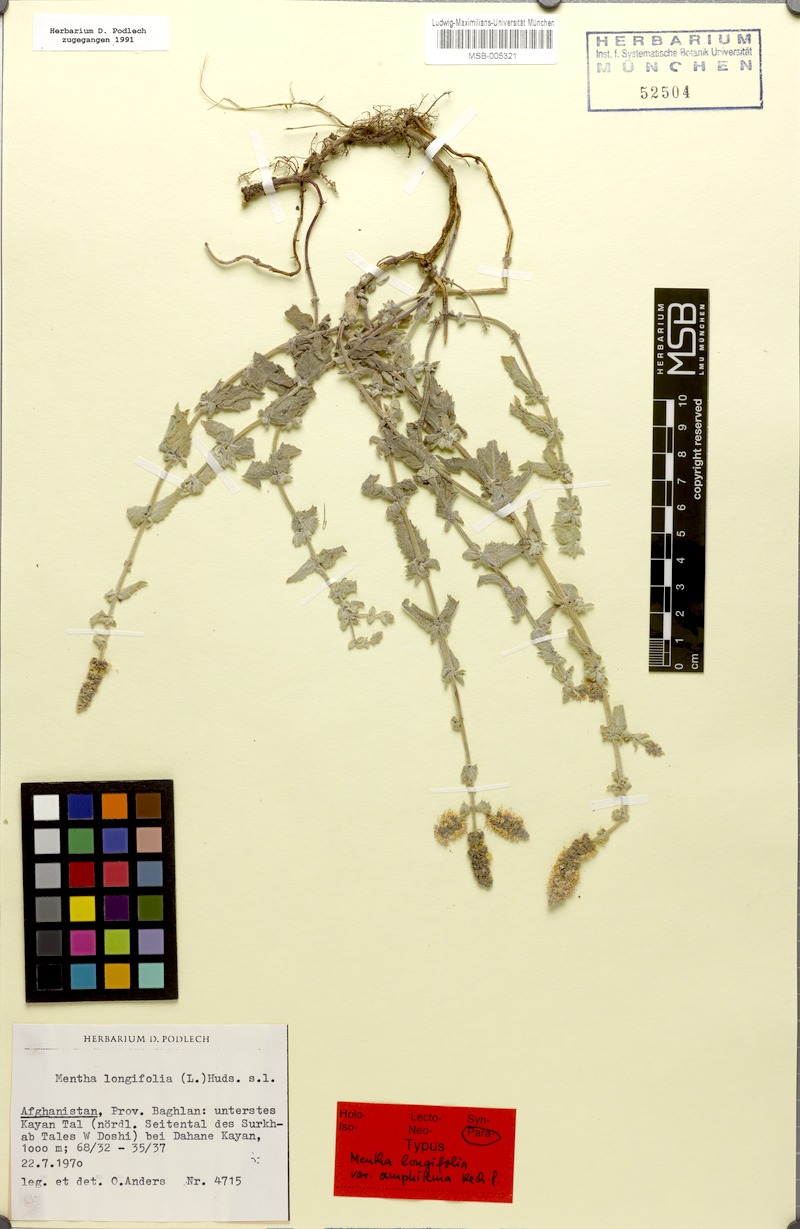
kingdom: Plantae
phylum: Tracheophyta
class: Magnoliopsida
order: Lamiales
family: Lamiaceae
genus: Mentha
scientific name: Mentha royleana
